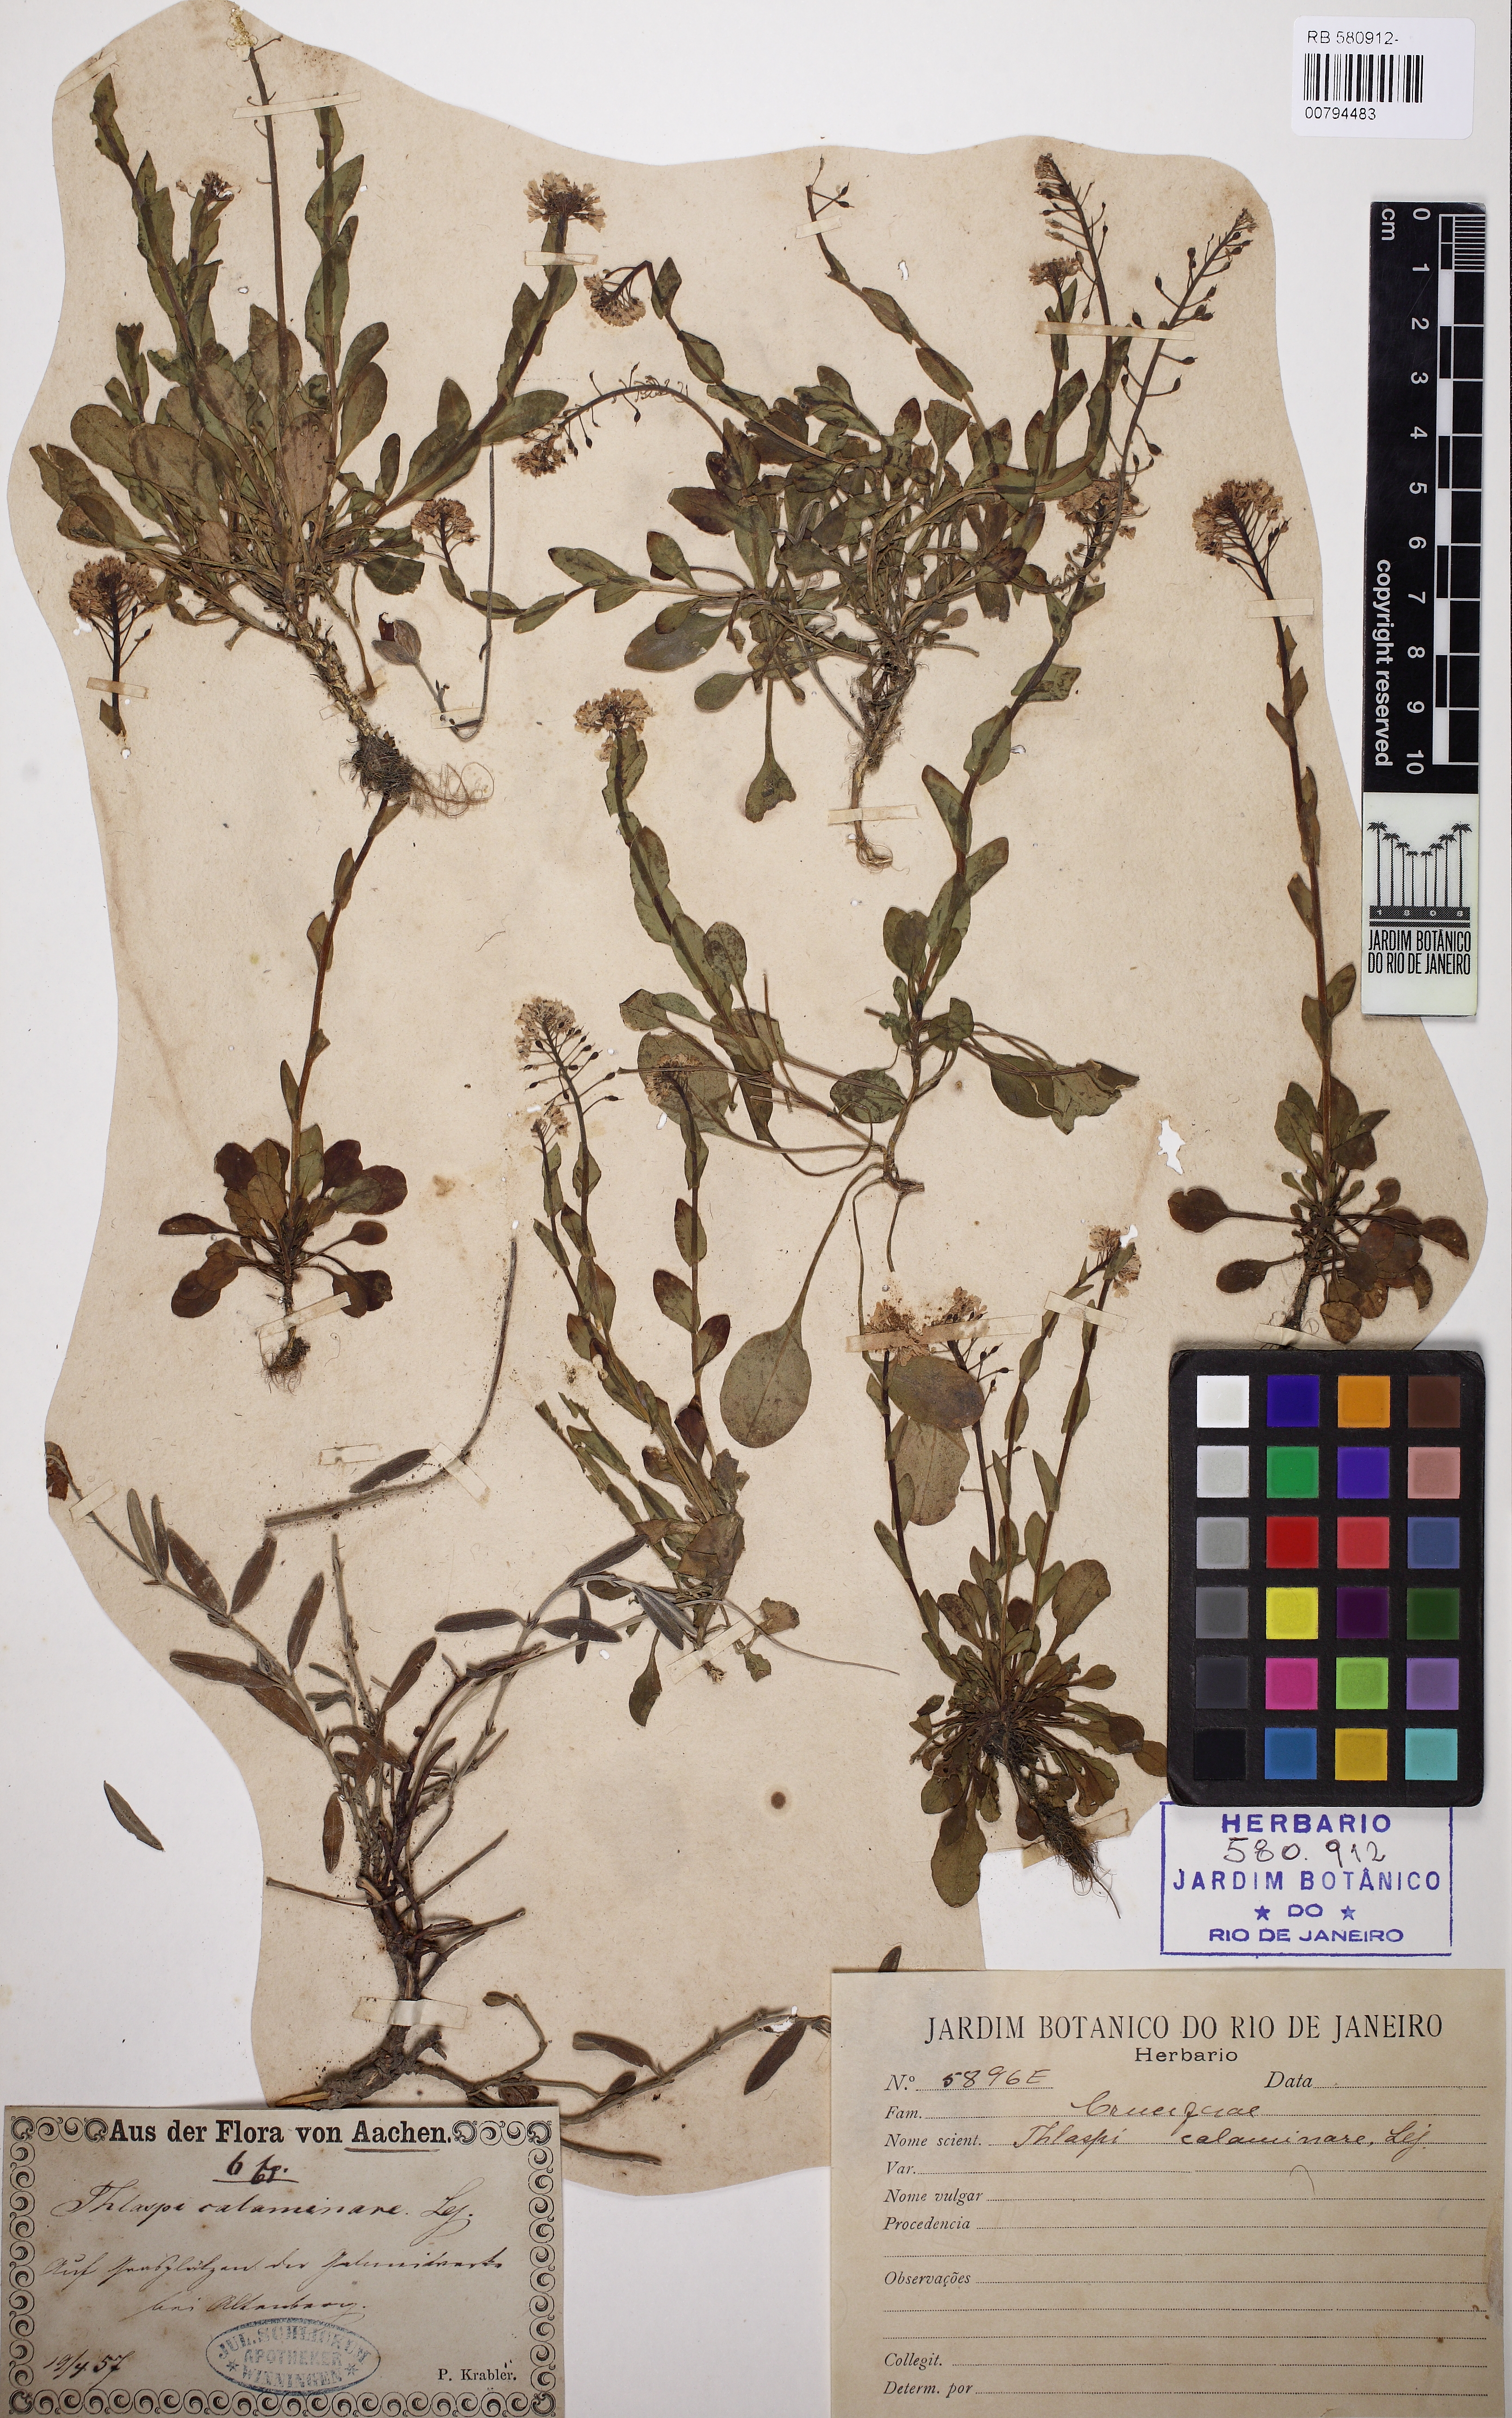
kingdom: Plantae
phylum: Tracheophyta
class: Magnoliopsida
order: Brassicales
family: Brassicaceae
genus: Noccaea
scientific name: Noccaea caerulescens
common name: Alpine pennycress
